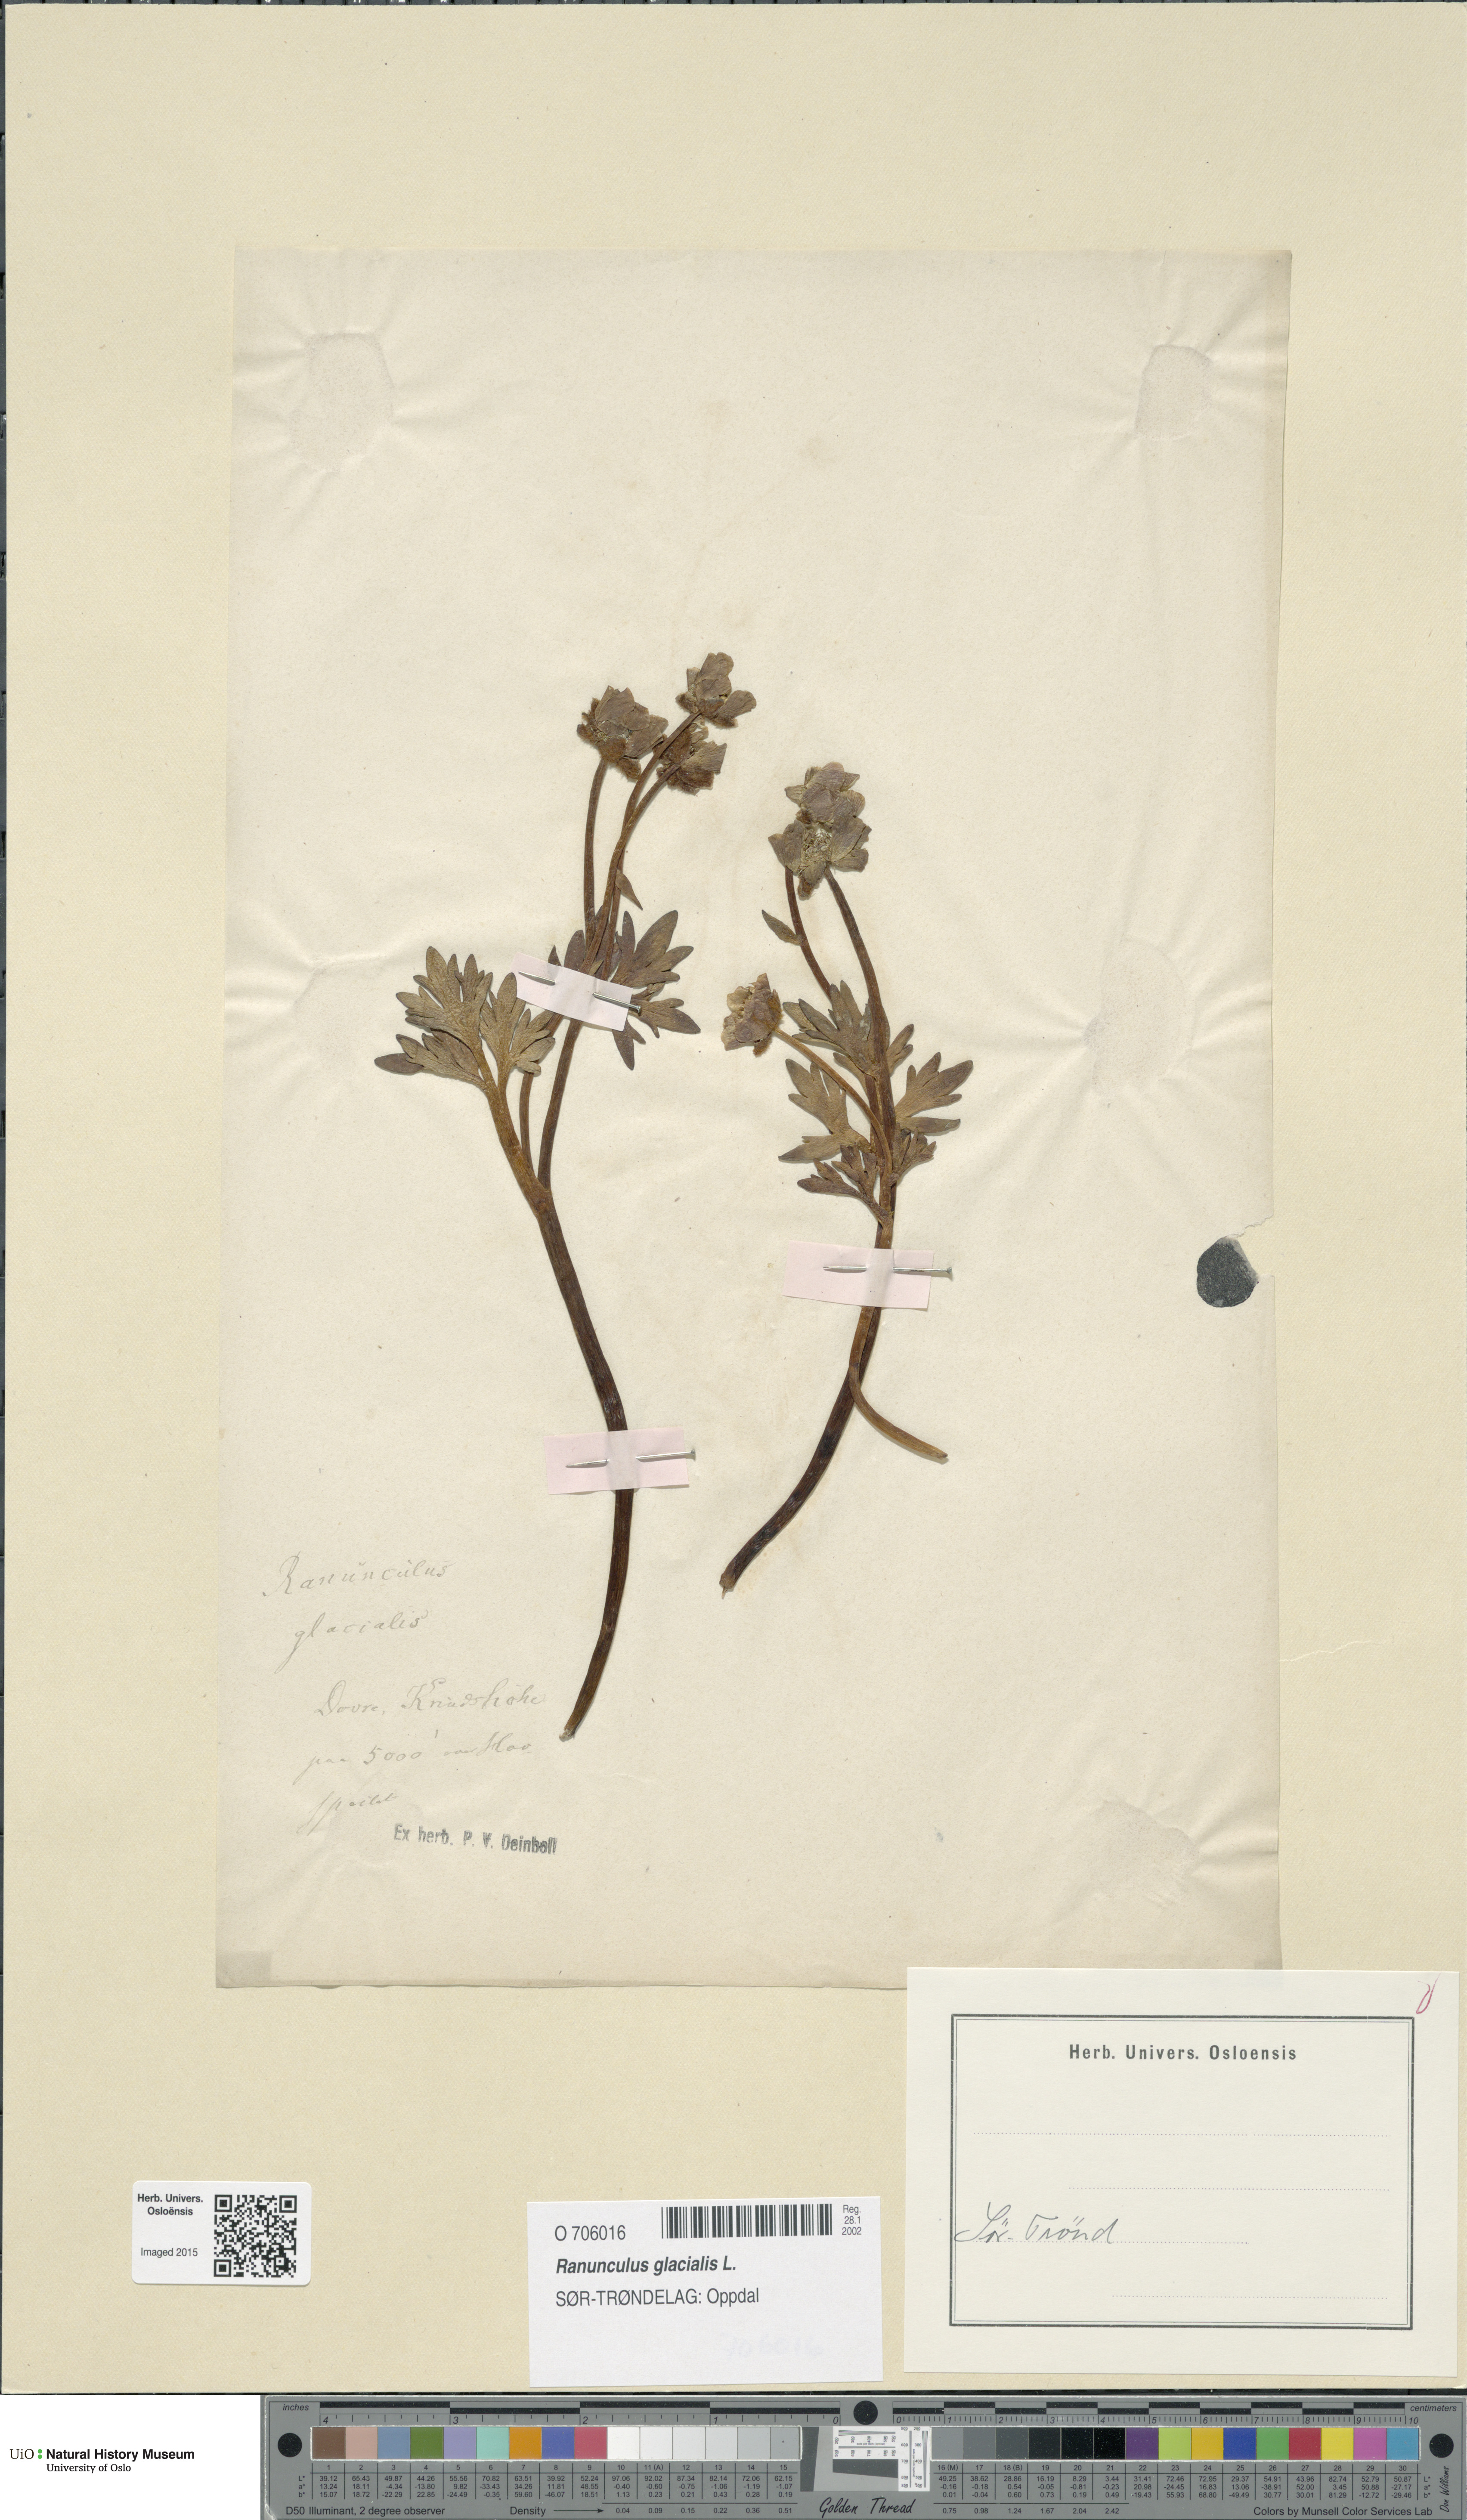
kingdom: Plantae
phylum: Tracheophyta
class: Magnoliopsida
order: Ranunculales
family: Ranunculaceae
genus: Ranunculus
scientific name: Ranunculus glacialis
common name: Glacier buttercup
